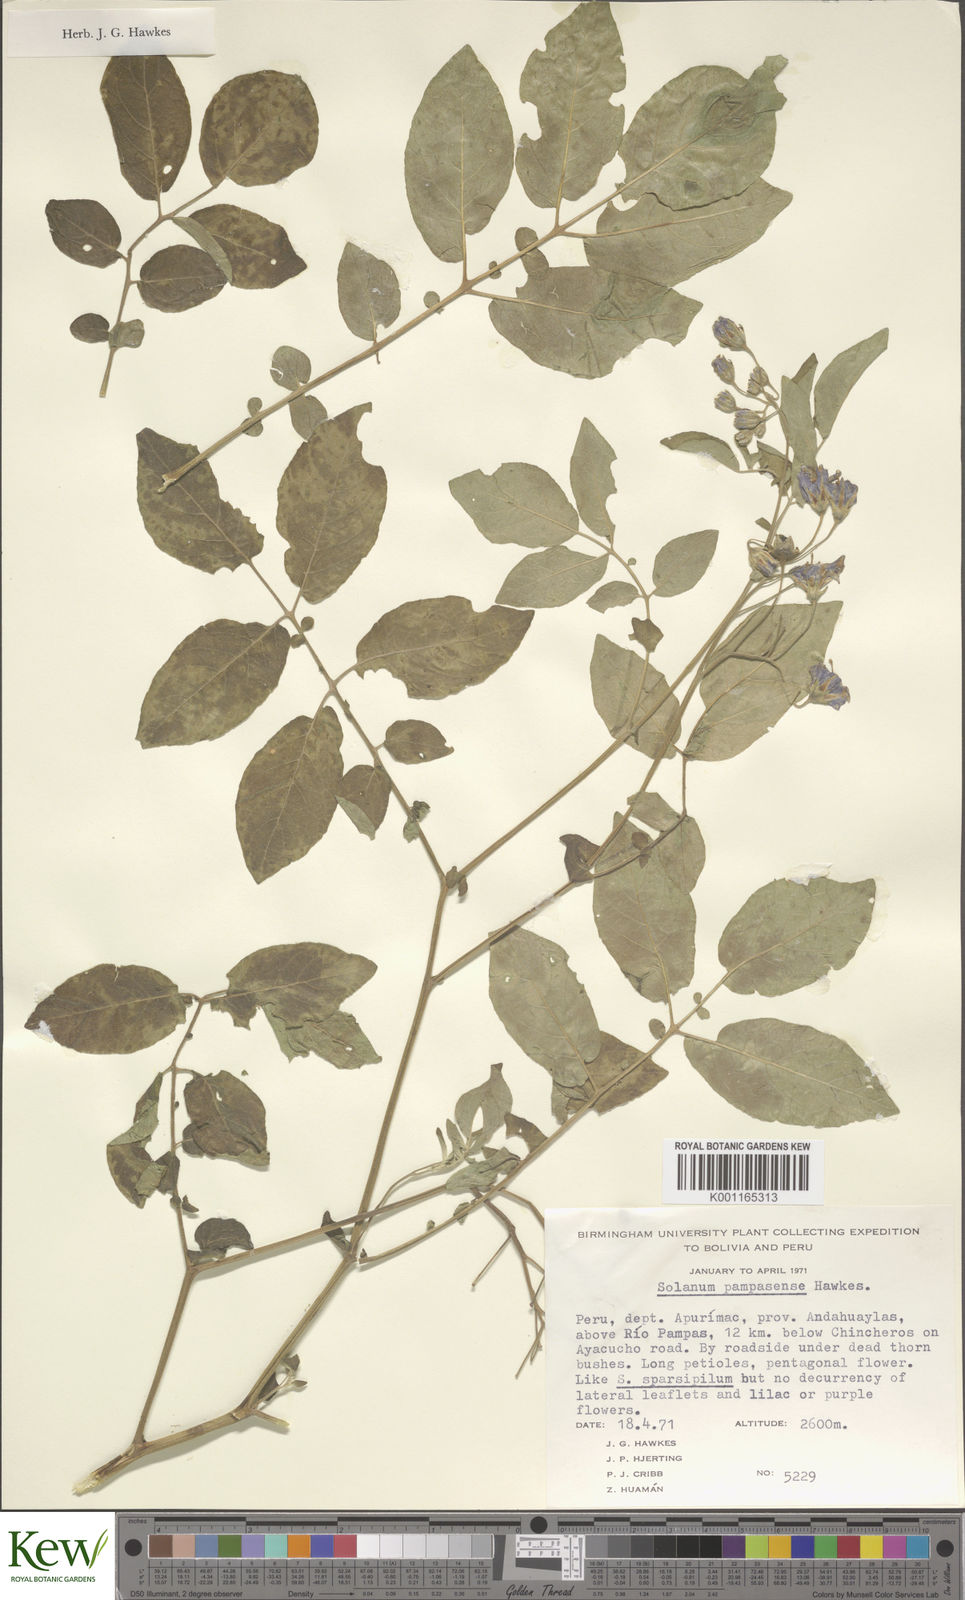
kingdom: Plantae
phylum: Tracheophyta
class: Magnoliopsida
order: Solanales
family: Solanaceae
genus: Solanum
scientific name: Solanum candolleanum
